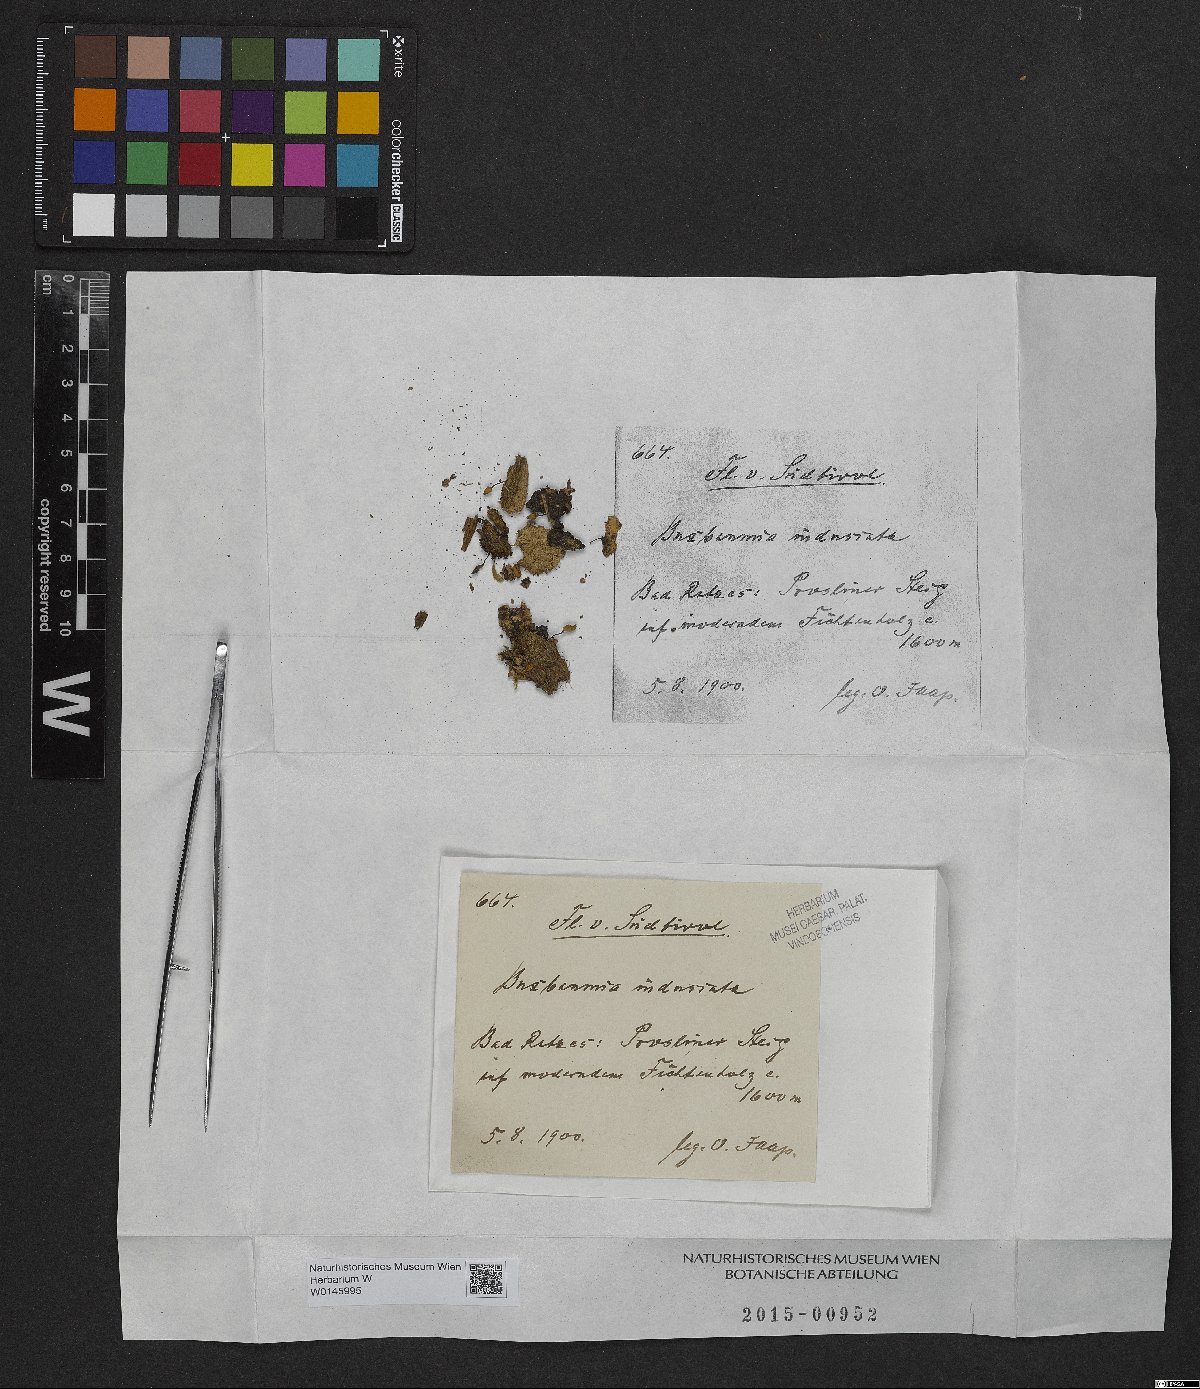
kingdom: Plantae
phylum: Bryophyta
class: Bryopsida
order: Buxbaumiales
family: Buxbaumiaceae
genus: Buxbaumia
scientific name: Buxbaumia viridis
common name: Green shield-moss
